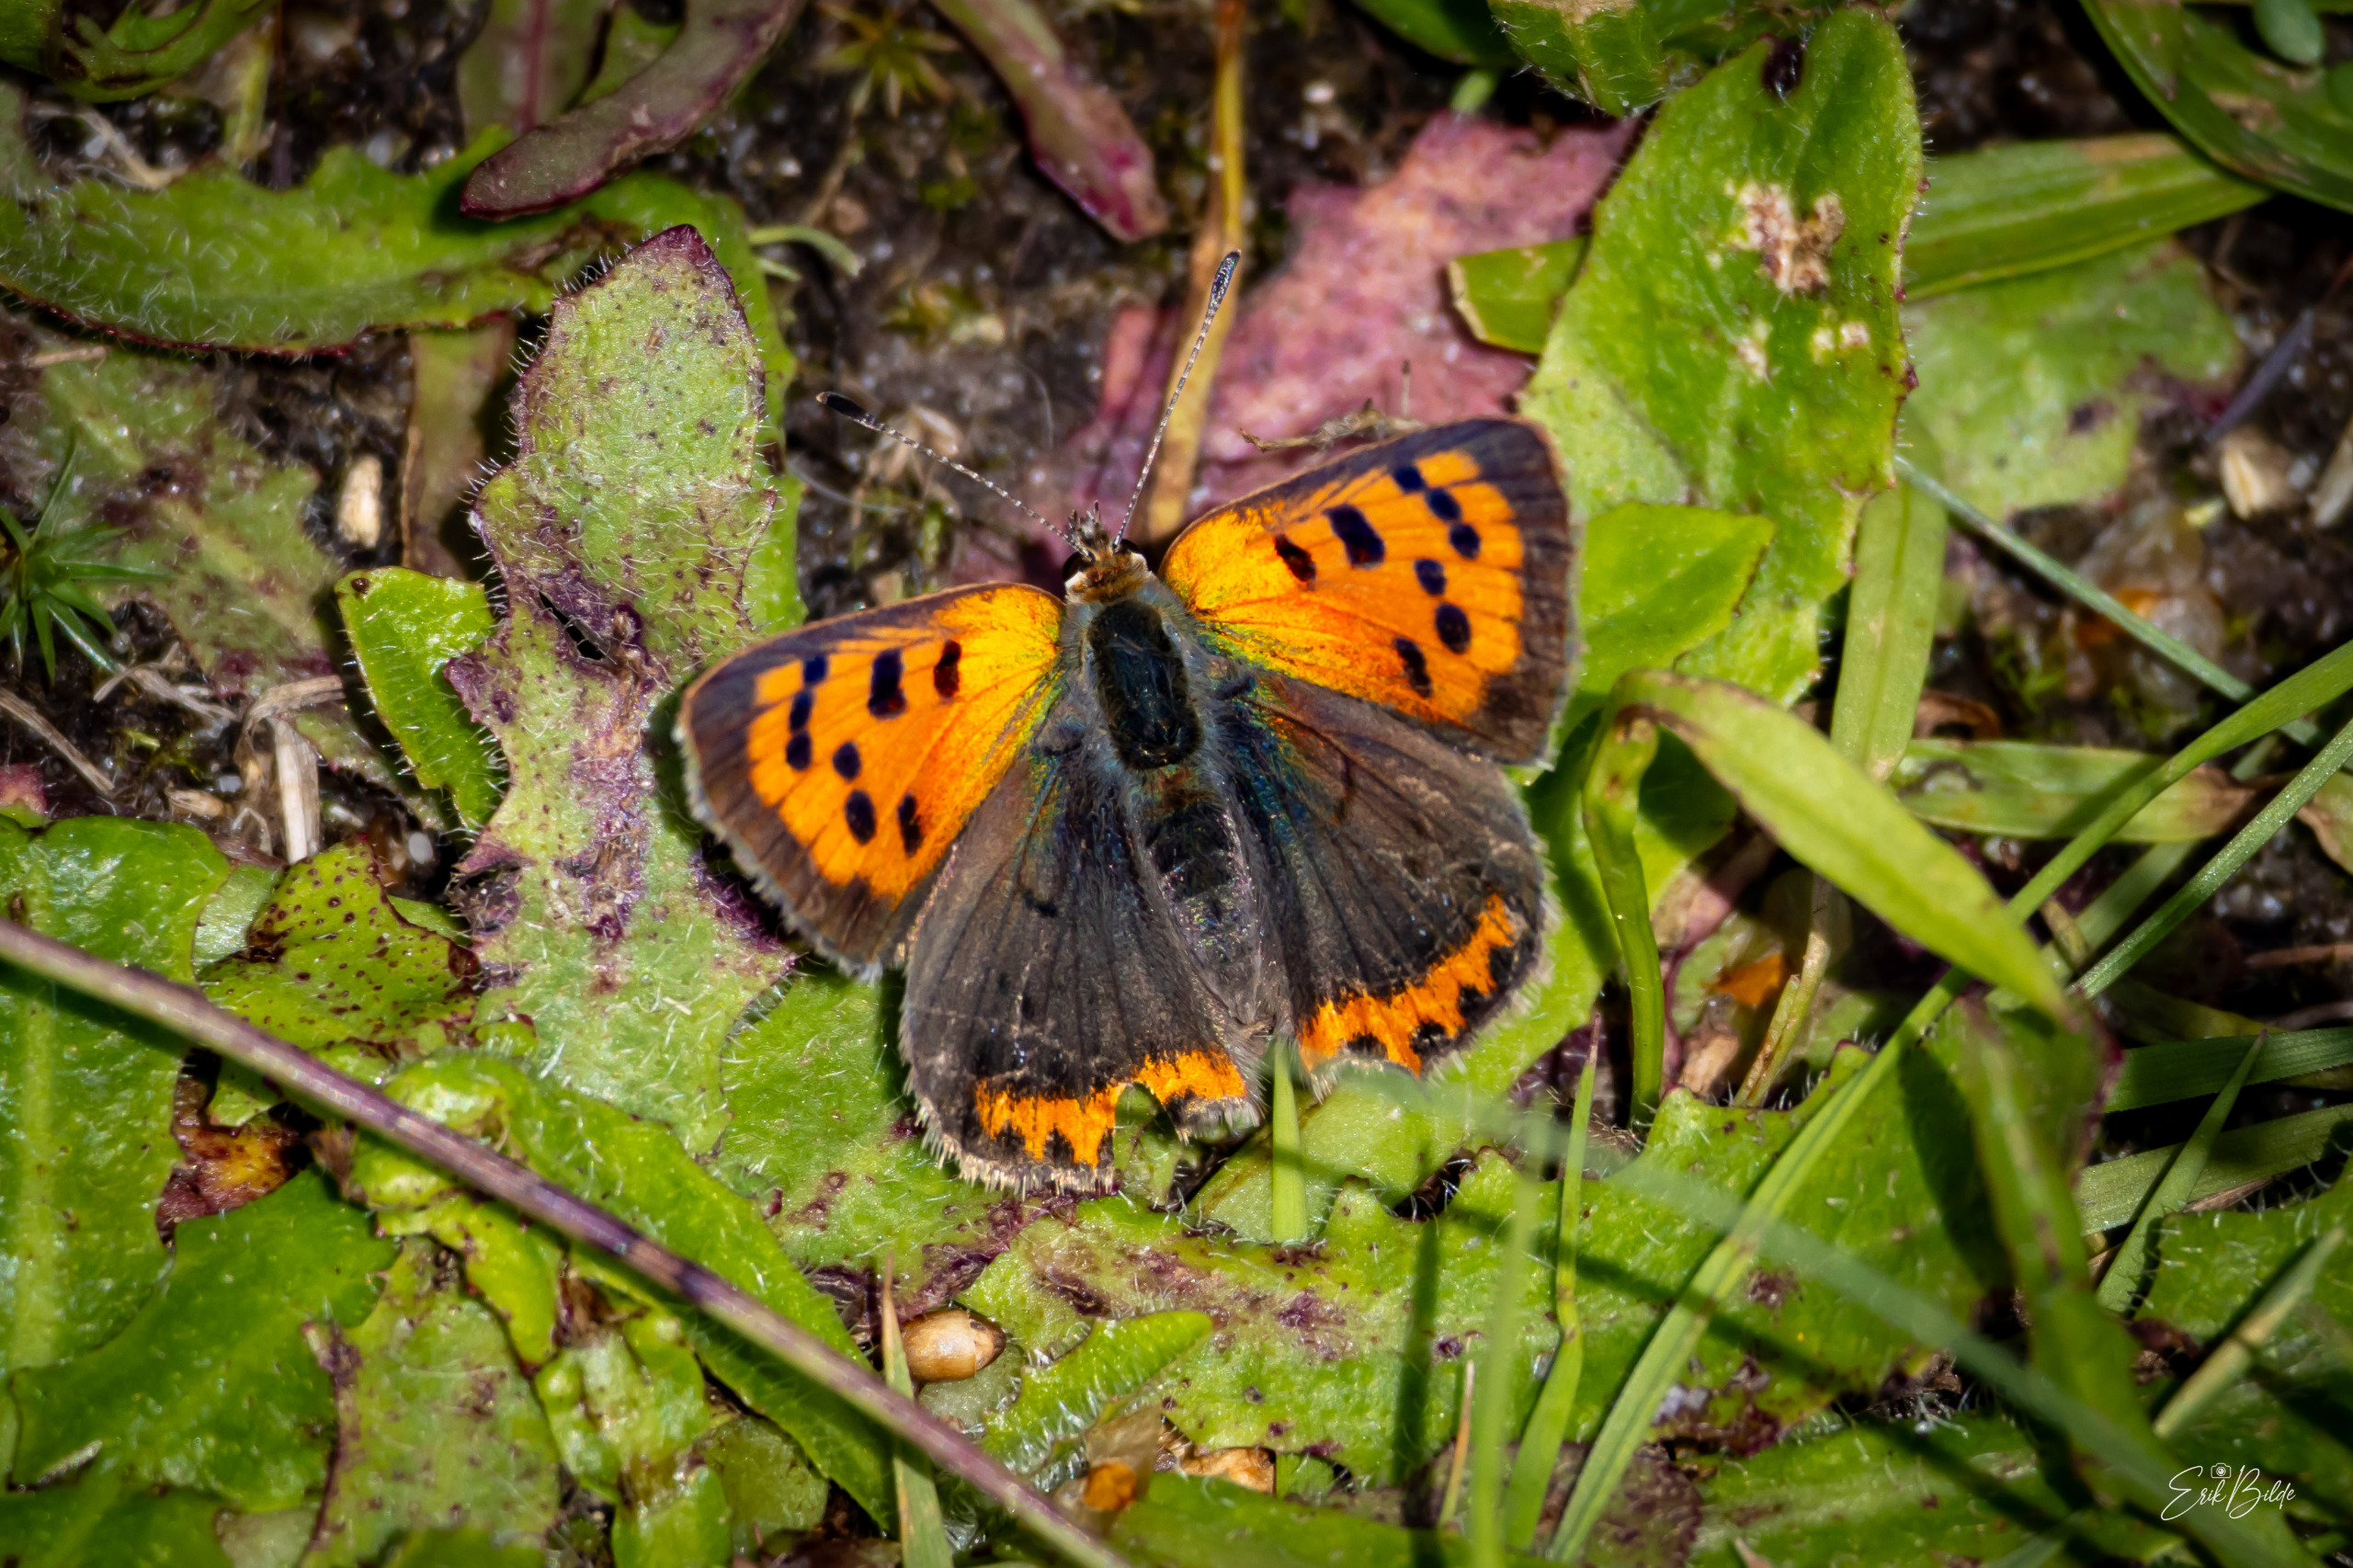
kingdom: Animalia
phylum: Arthropoda
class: Insecta
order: Lepidoptera
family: Lycaenidae
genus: Lycaena
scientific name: Lycaena phlaeas
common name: Lille ildfugl
